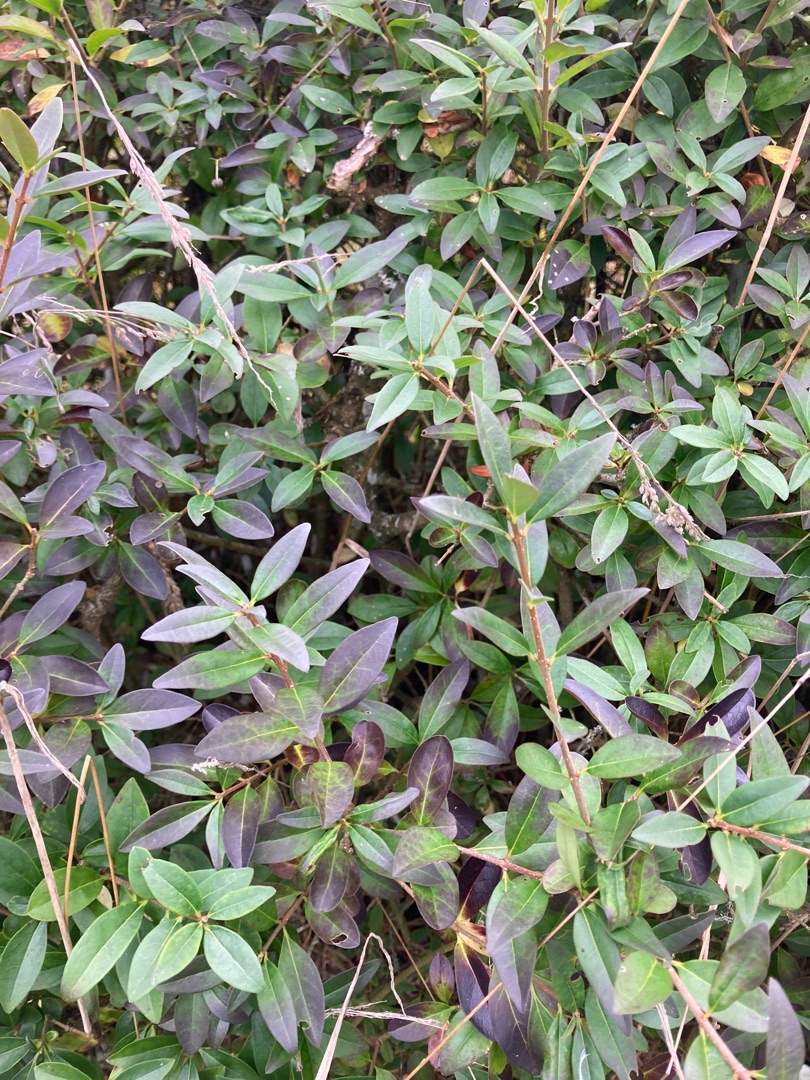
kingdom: Plantae
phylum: Tracheophyta
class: Magnoliopsida
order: Lamiales
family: Oleaceae
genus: Ligustrum
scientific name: Ligustrum vulgare
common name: Liguster
